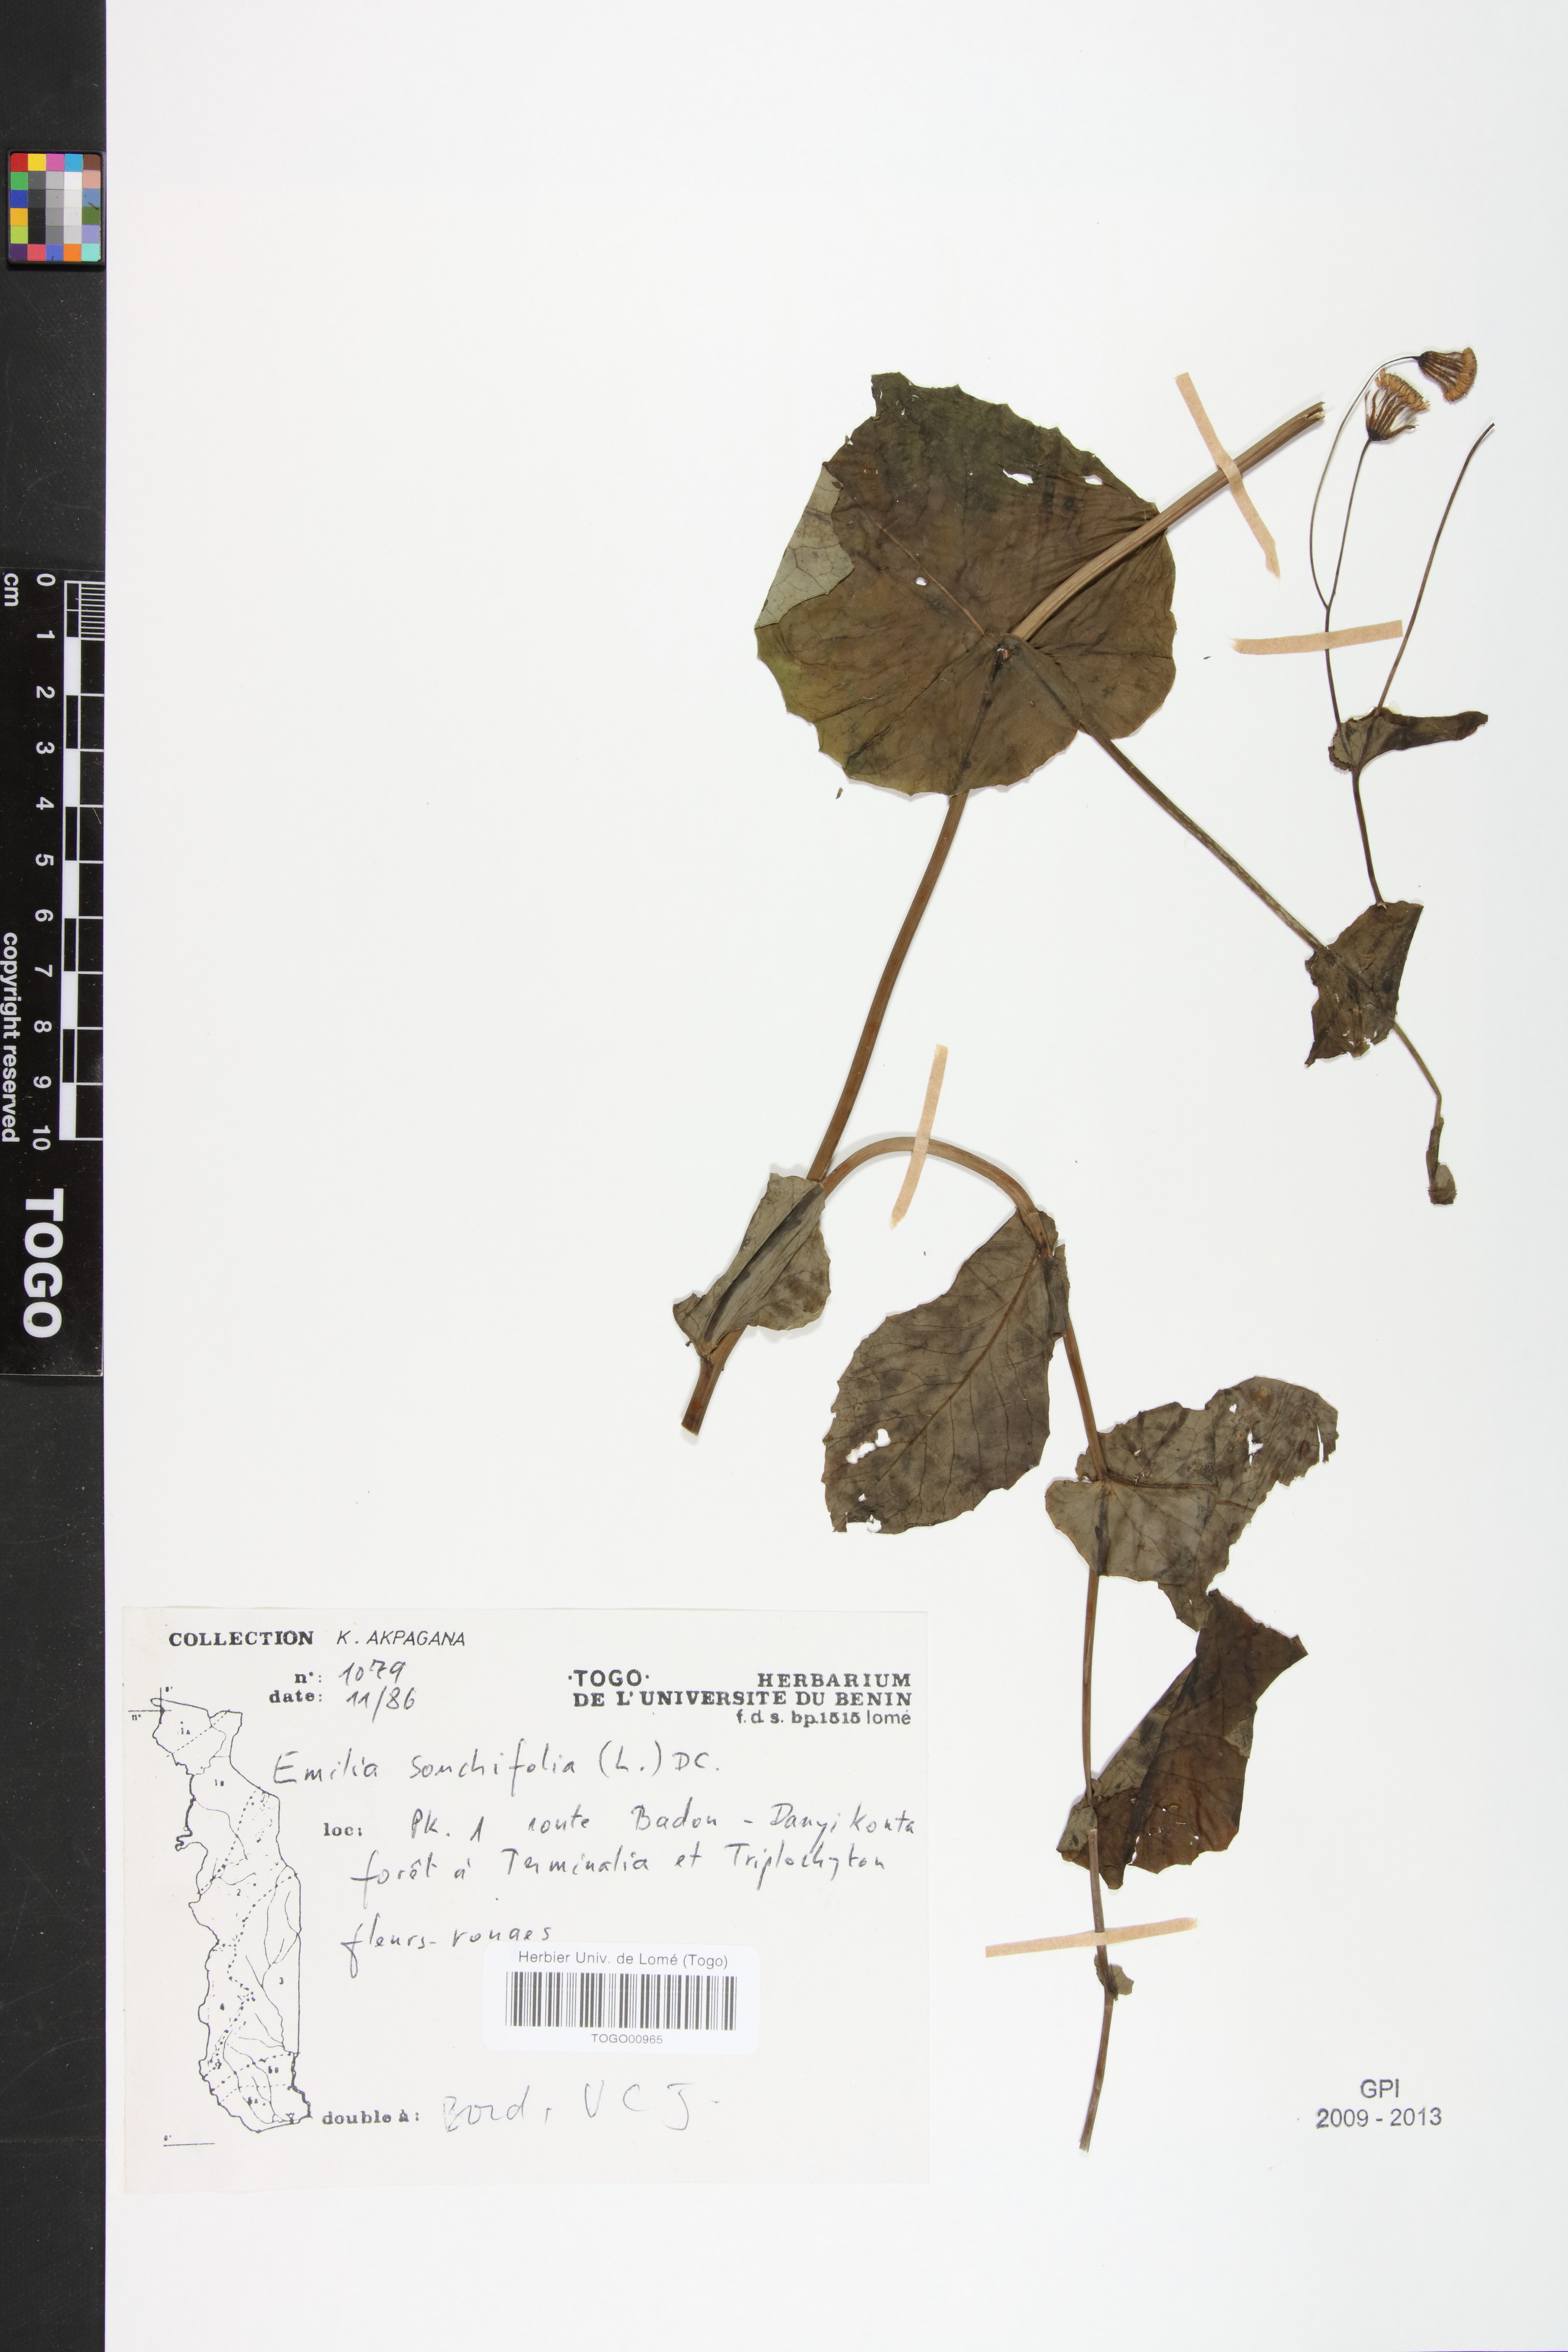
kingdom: Plantae
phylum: Tracheophyta
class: Magnoliopsida
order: Asterales
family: Asteraceae
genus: Emilia
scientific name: Emilia sonchifolia
